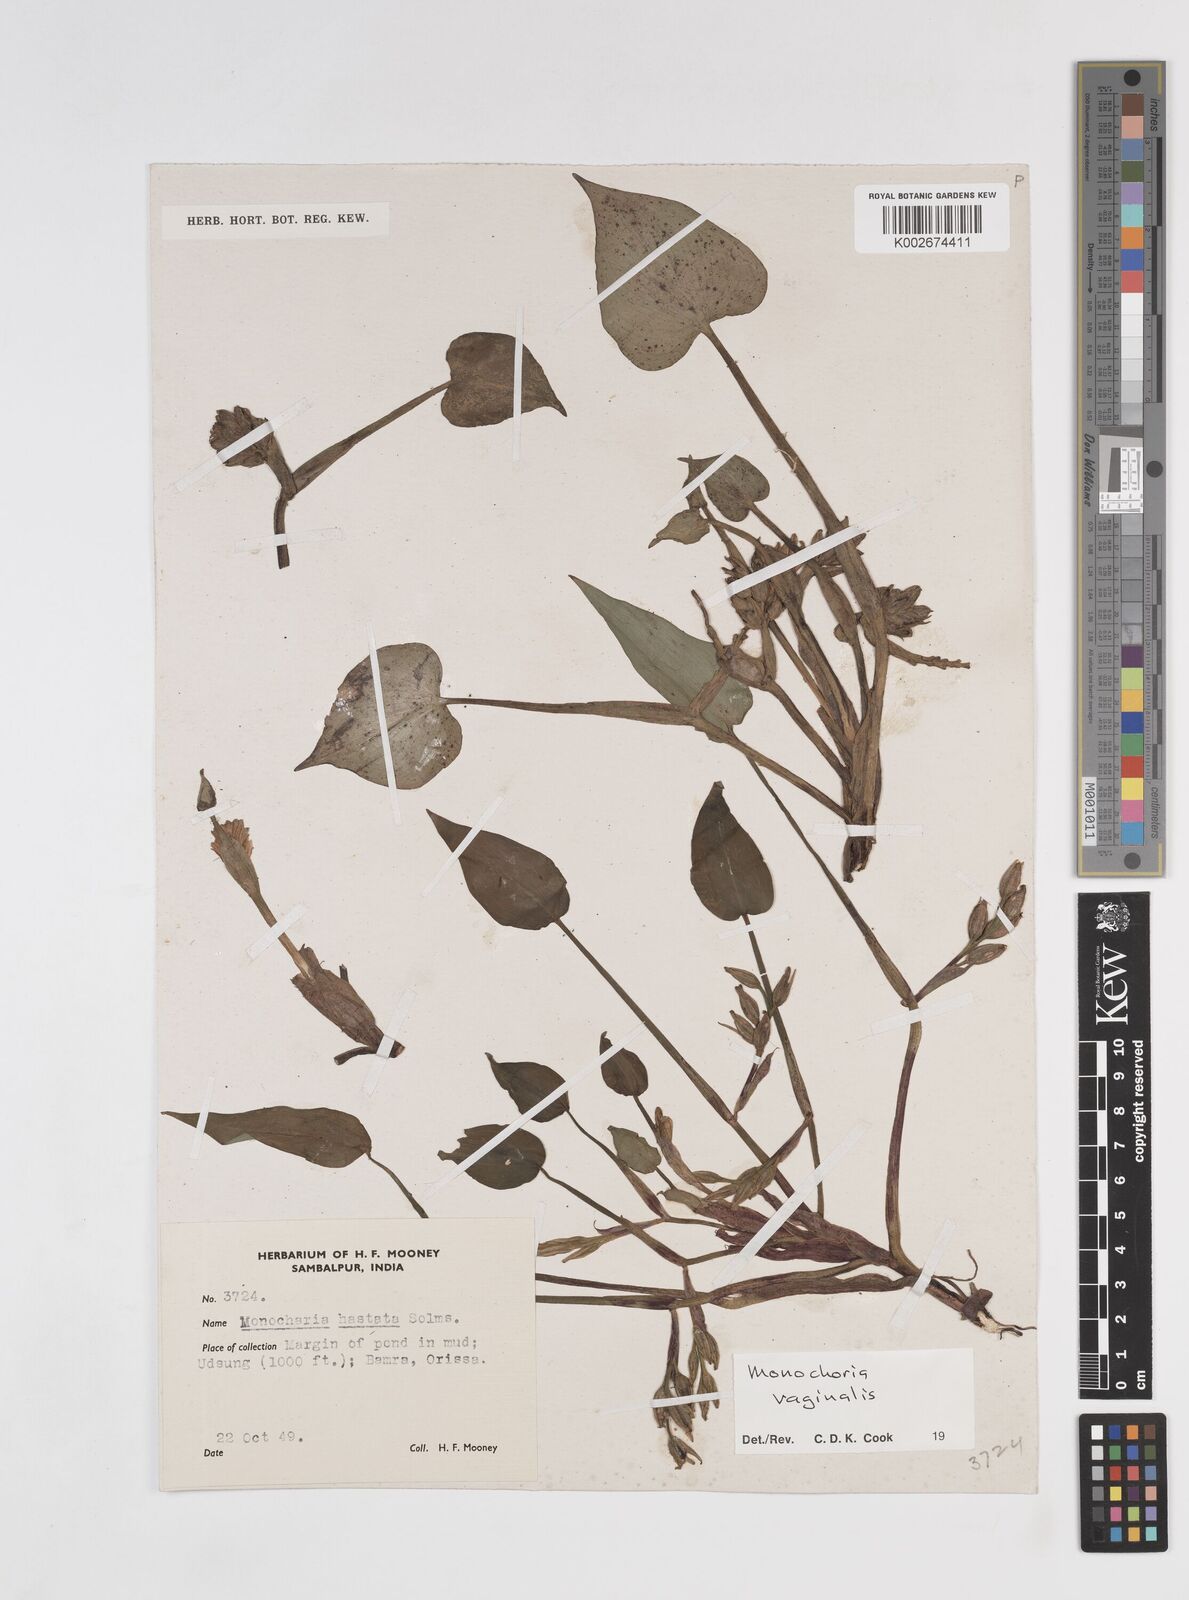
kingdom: Plantae
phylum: Tracheophyta
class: Liliopsida
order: Commelinales
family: Pontederiaceae
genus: Pontederia
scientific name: Pontederia vaginalis
